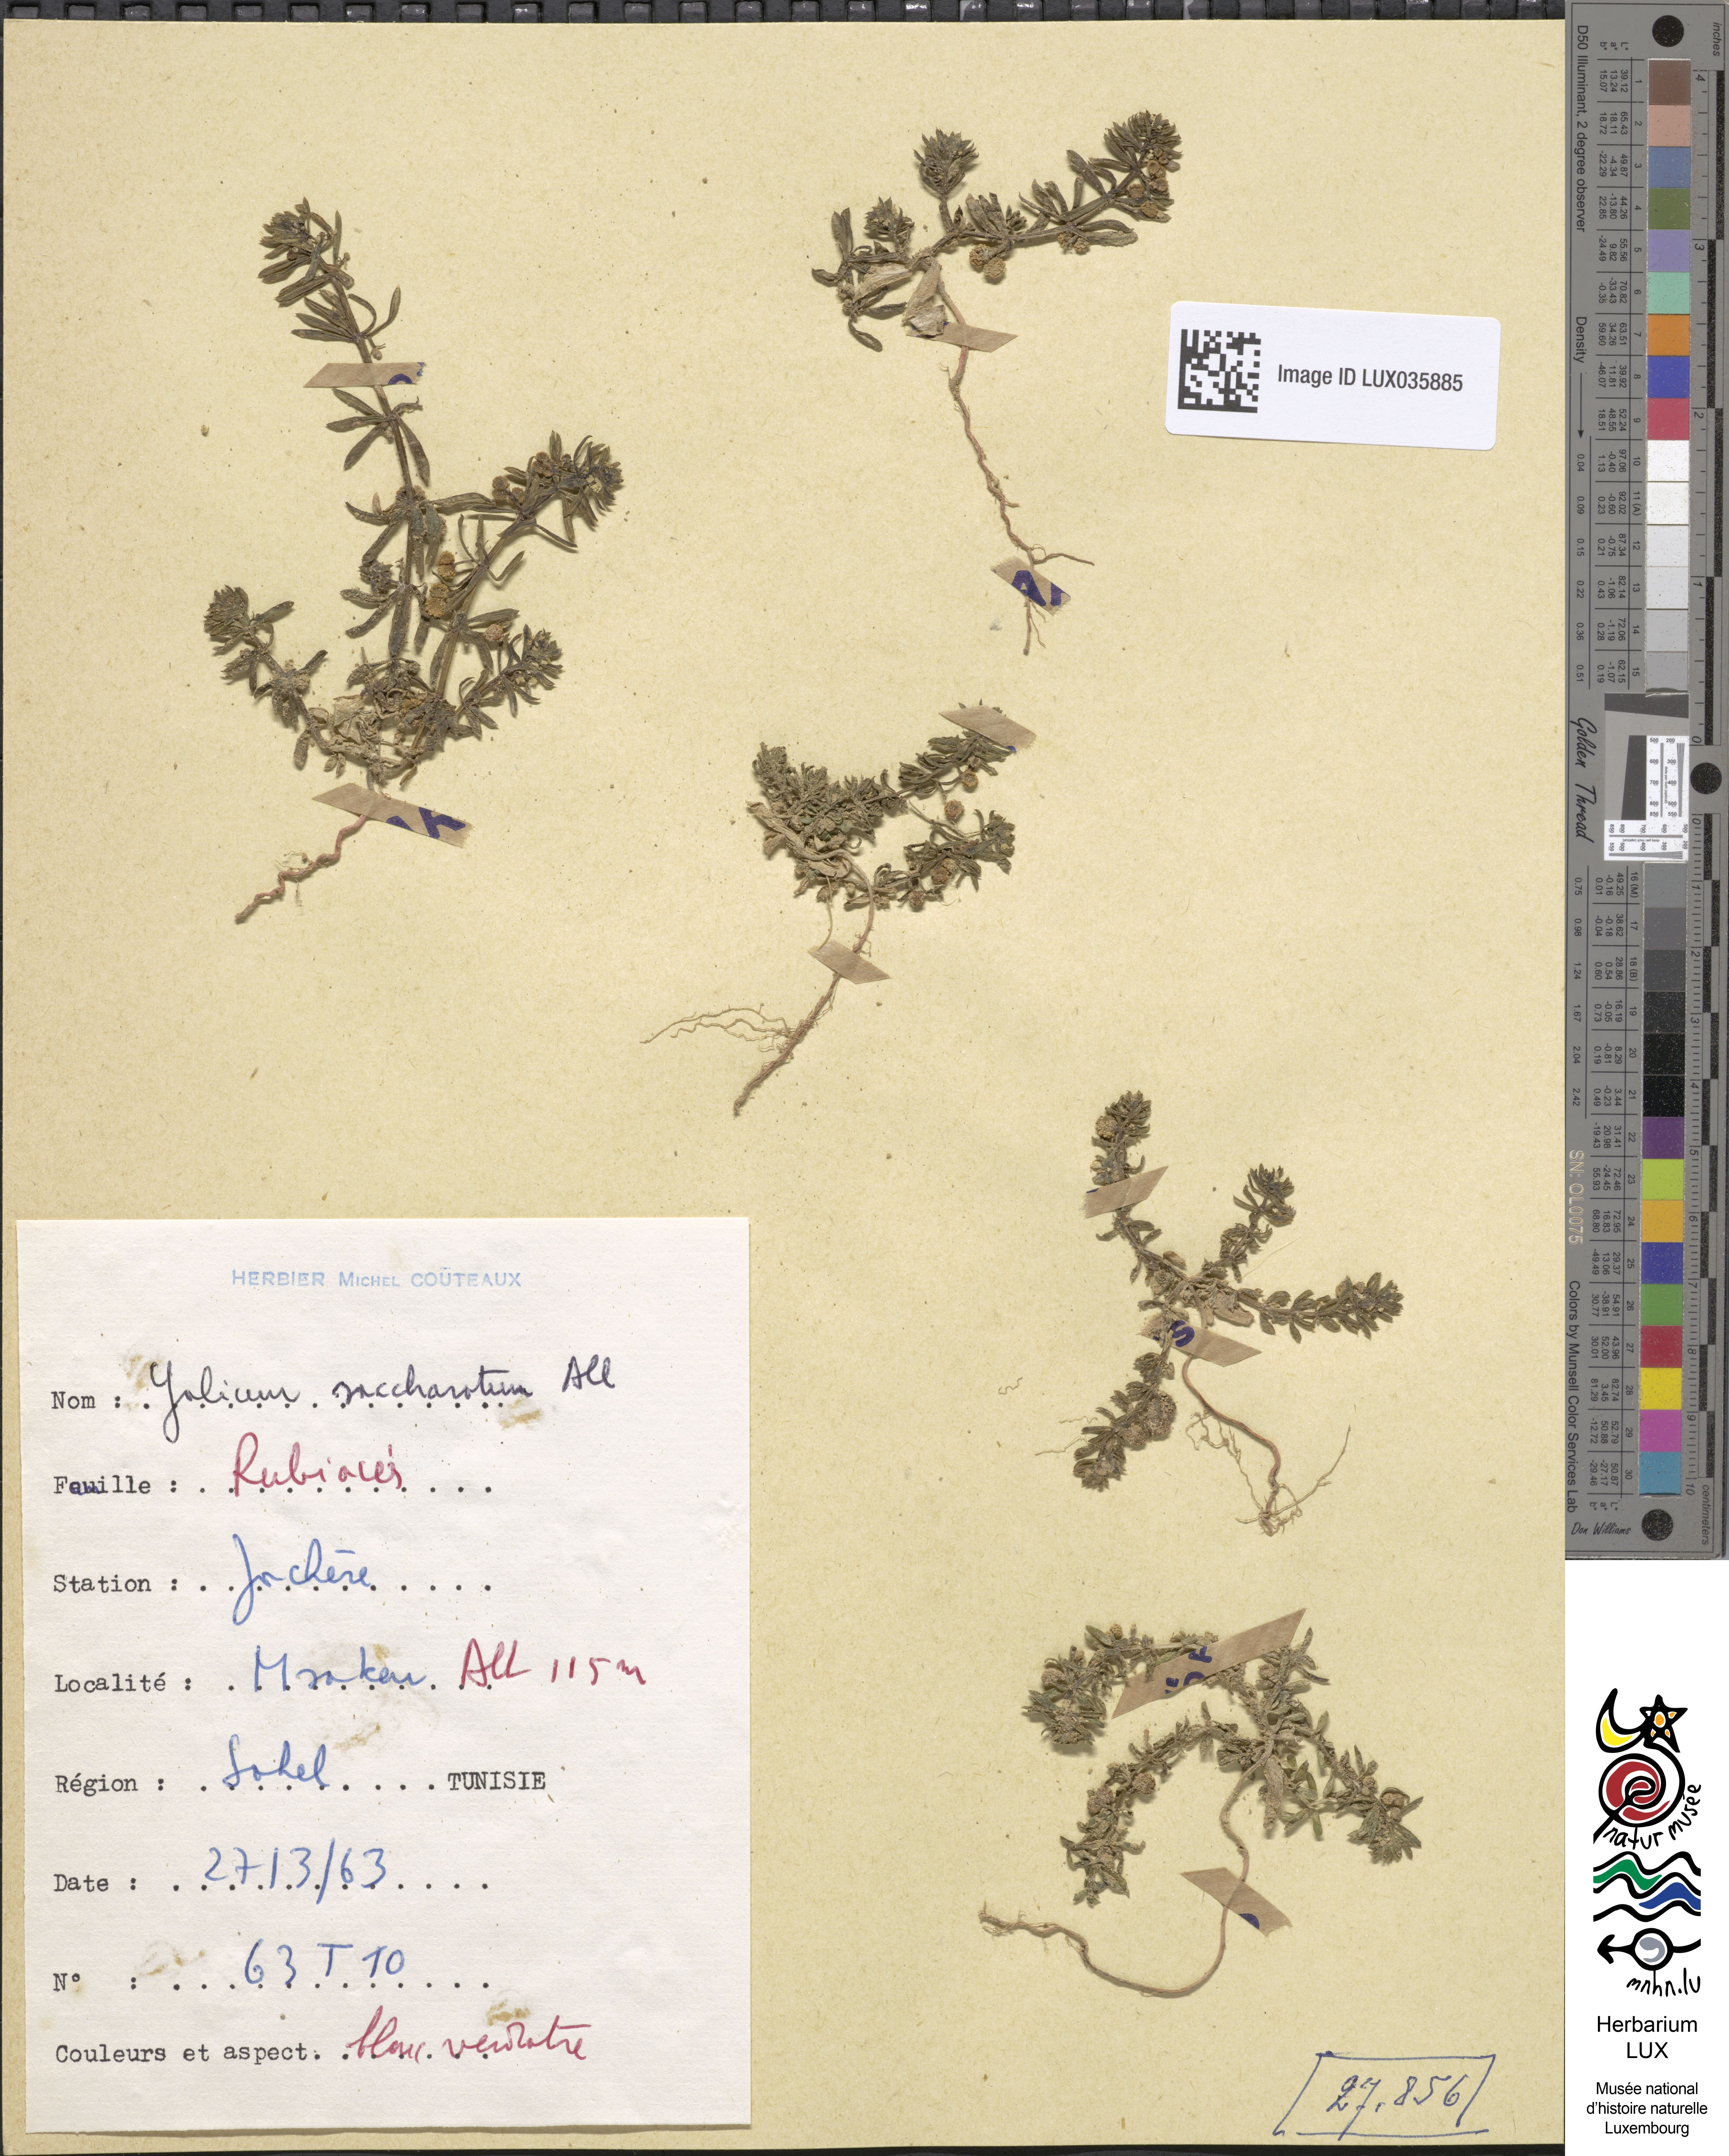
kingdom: Plantae
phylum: Tracheophyta
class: Magnoliopsida
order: Gentianales
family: Rubiaceae
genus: Galium
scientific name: Galium verrucosum
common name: Warty bedstraw
